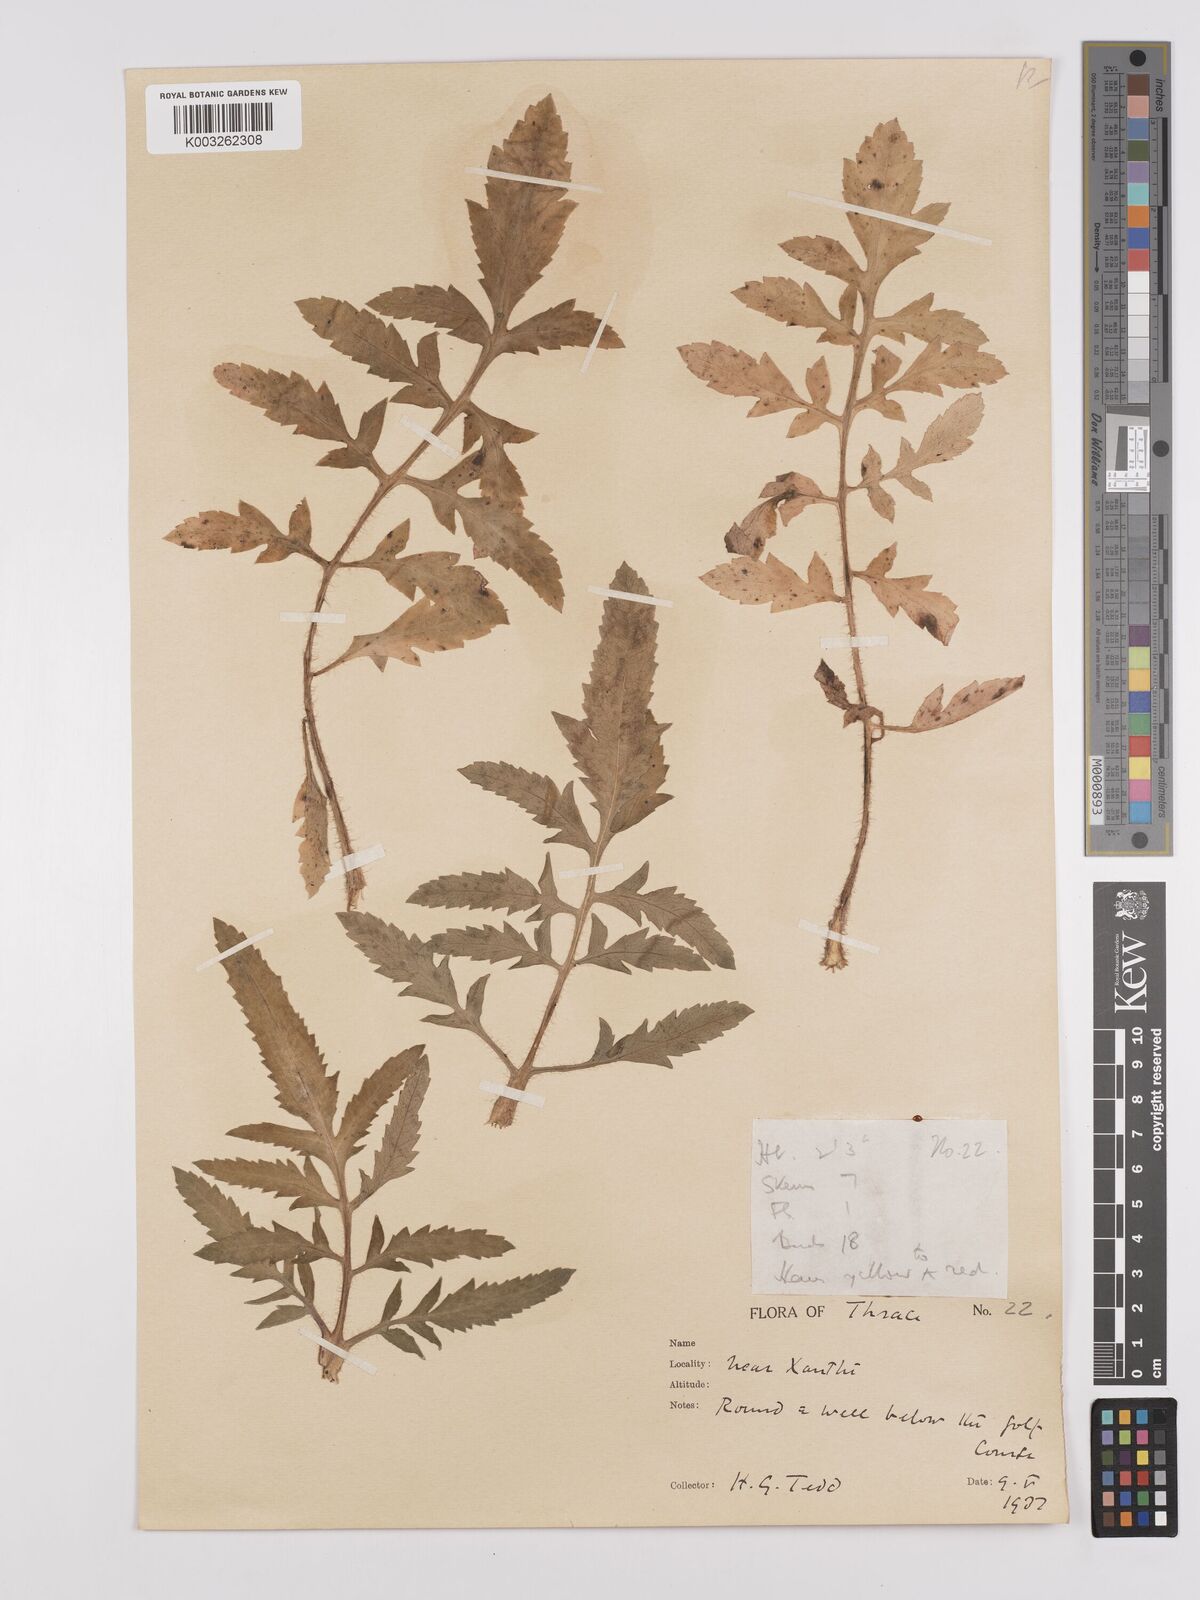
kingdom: Plantae
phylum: Tracheophyta
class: Magnoliopsida
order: Ranunculales
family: Papaveraceae
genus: Papaver
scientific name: Papaver rhoeas
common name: Corn poppy
